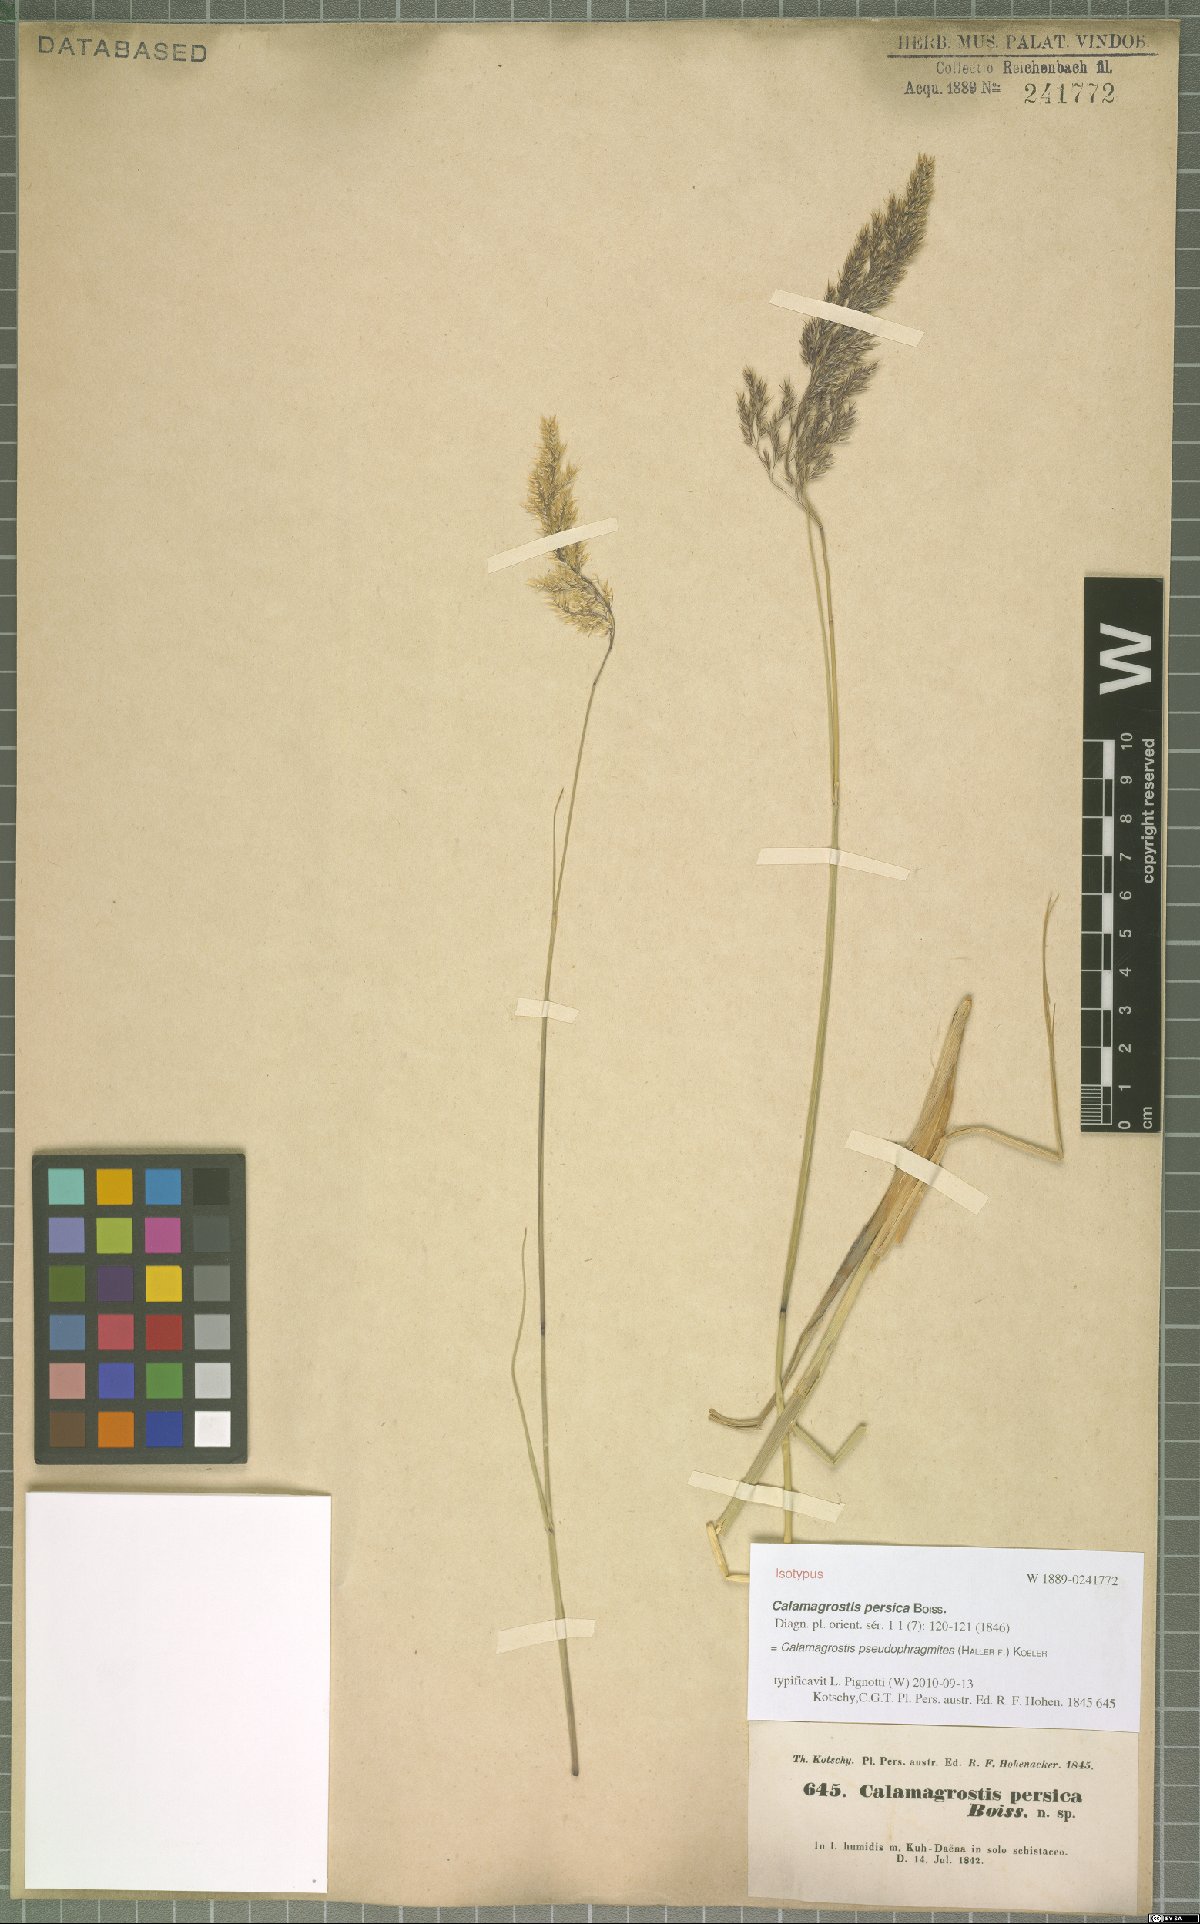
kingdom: Plantae
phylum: Tracheophyta
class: Liliopsida
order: Poales
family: Poaceae
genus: Calamagrostis
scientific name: Calamagrostis pseudophragmites
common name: Coastal small-reed
